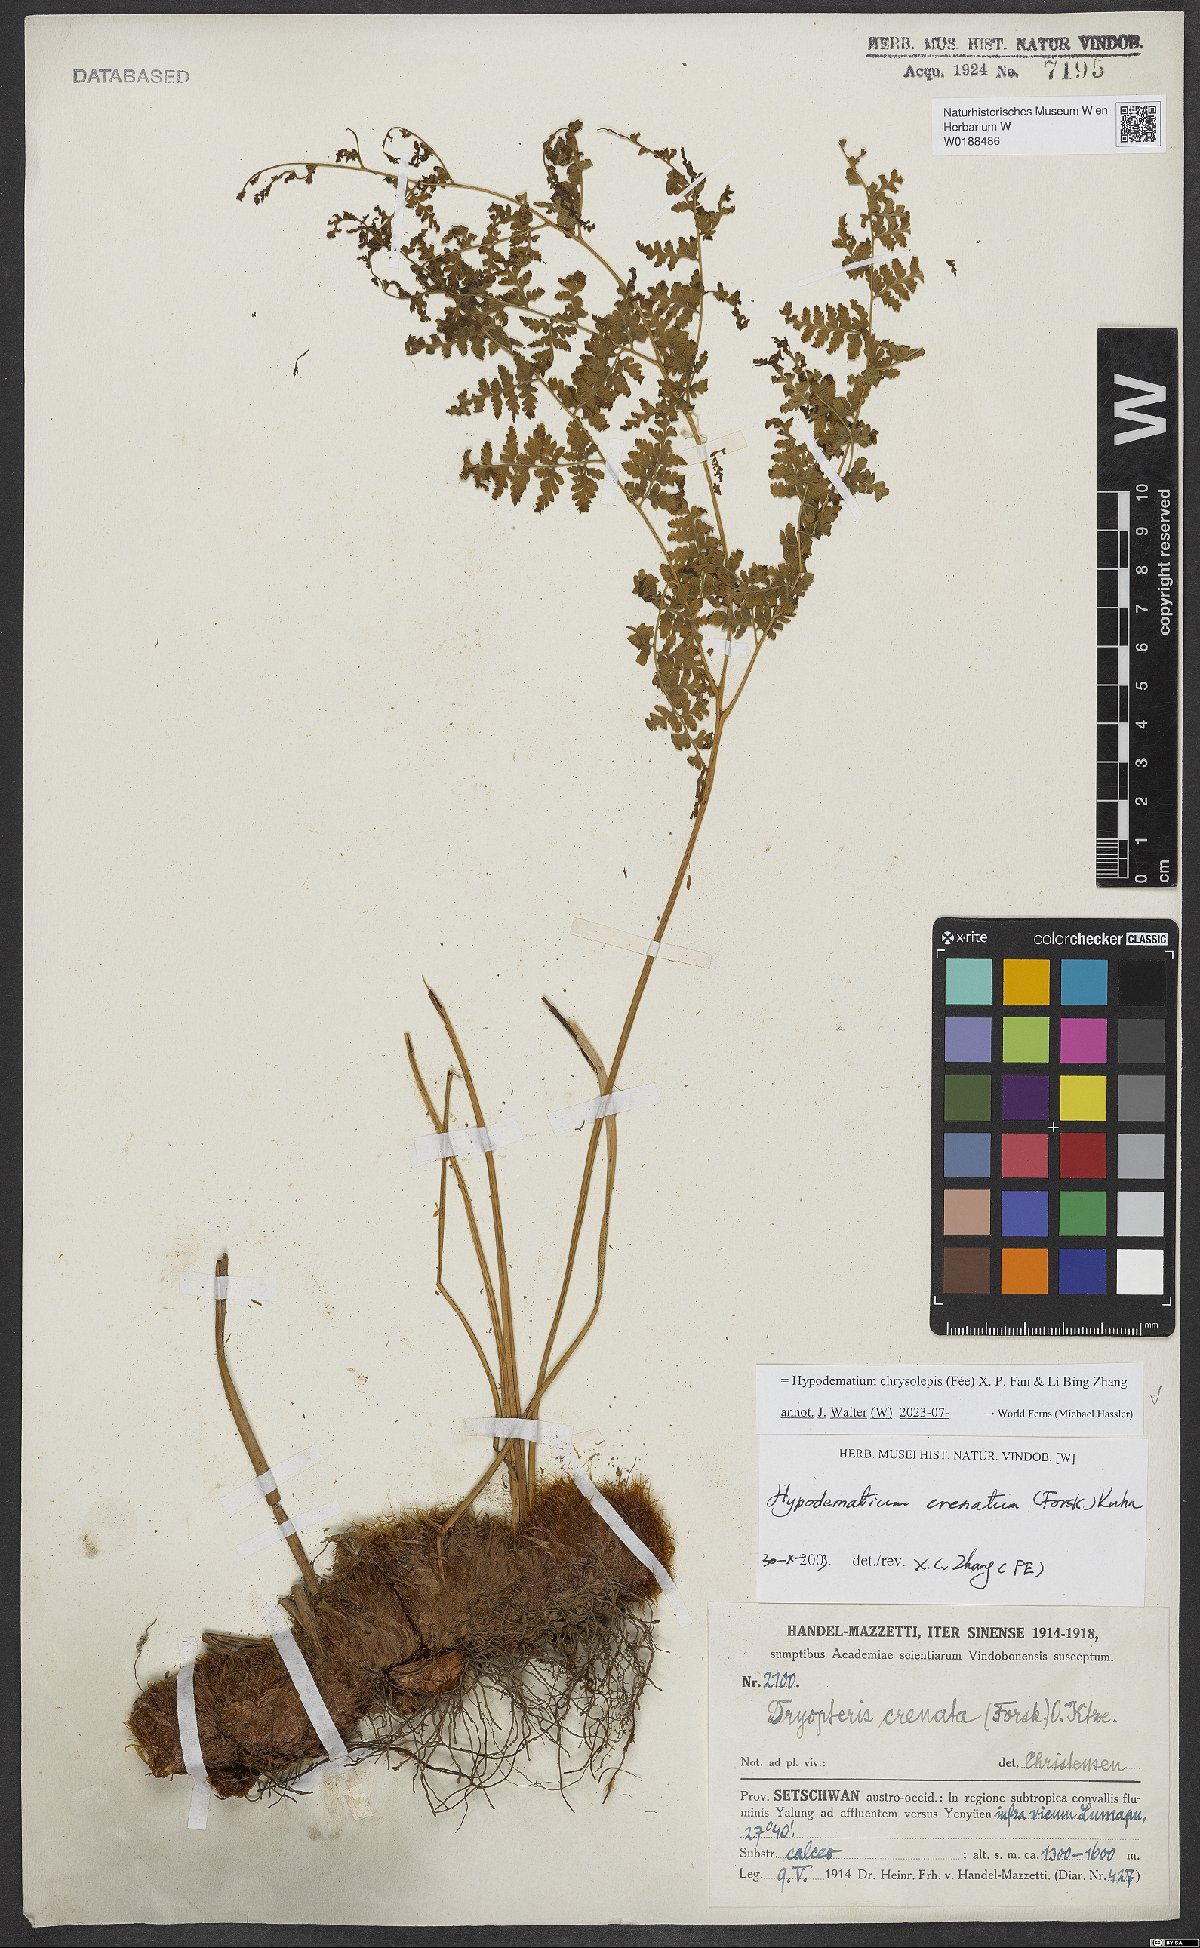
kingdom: Plantae
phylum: Tracheophyta
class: Polypodiopsida
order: Polypodiales
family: Hypodematiaceae
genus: Hypodematium
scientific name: Hypodematium chrysolepis
